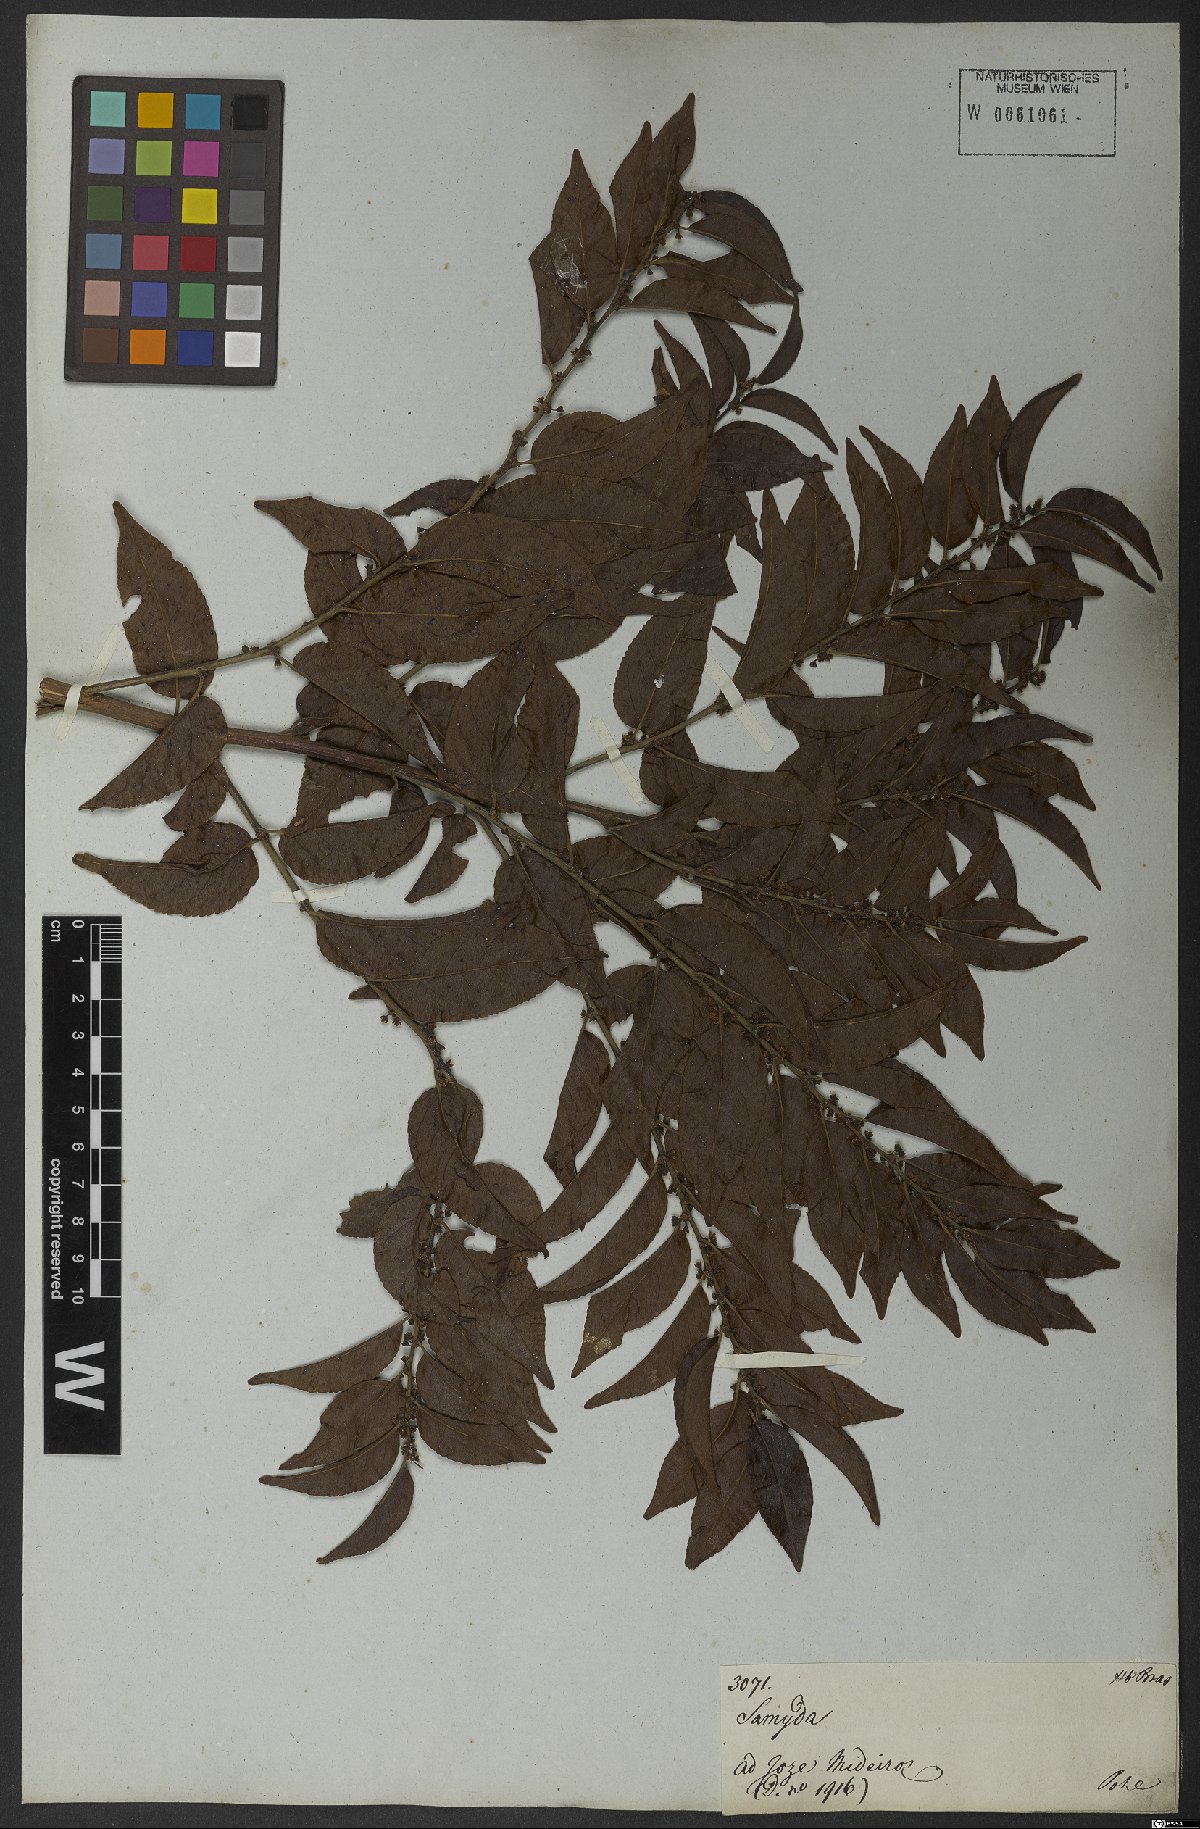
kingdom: Plantae
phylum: Tracheophyta
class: Magnoliopsida
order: Malpighiales
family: Salicaceae
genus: Casearia
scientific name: Casearia sylvestris
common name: Wild sage
